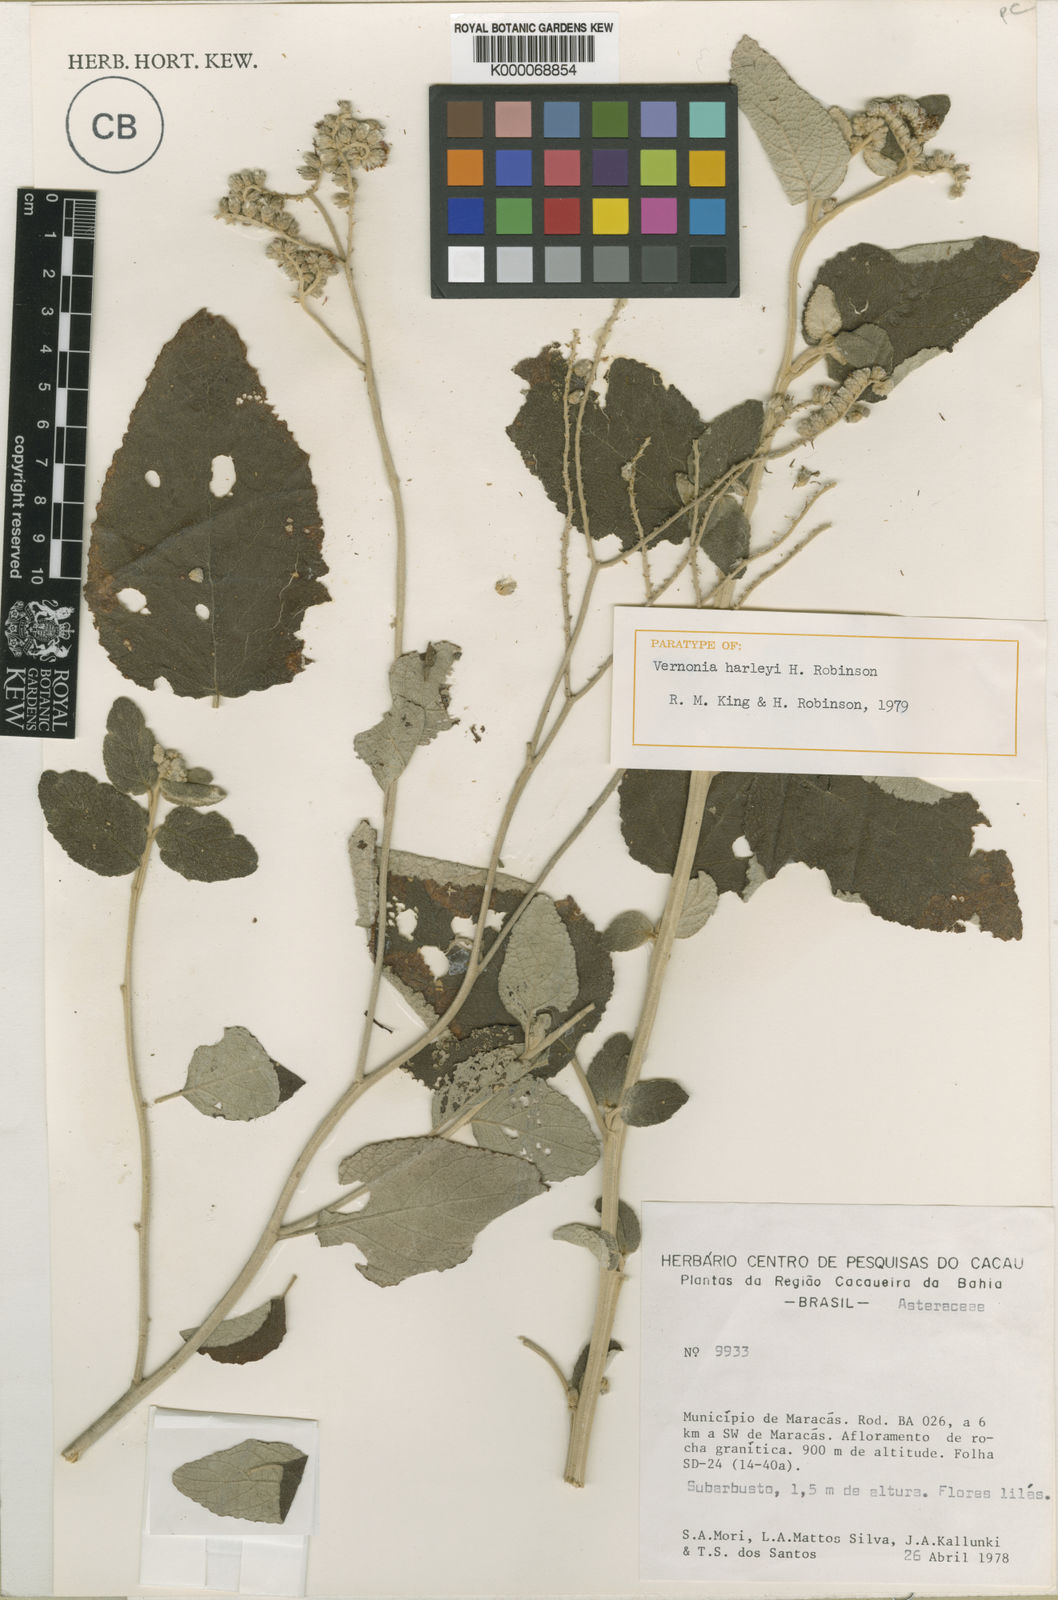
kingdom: Plantae
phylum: Tracheophyta
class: Magnoliopsida
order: Asterales
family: Asteraceae
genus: Cyrtocymura
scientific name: Cyrtocymura harleyi
